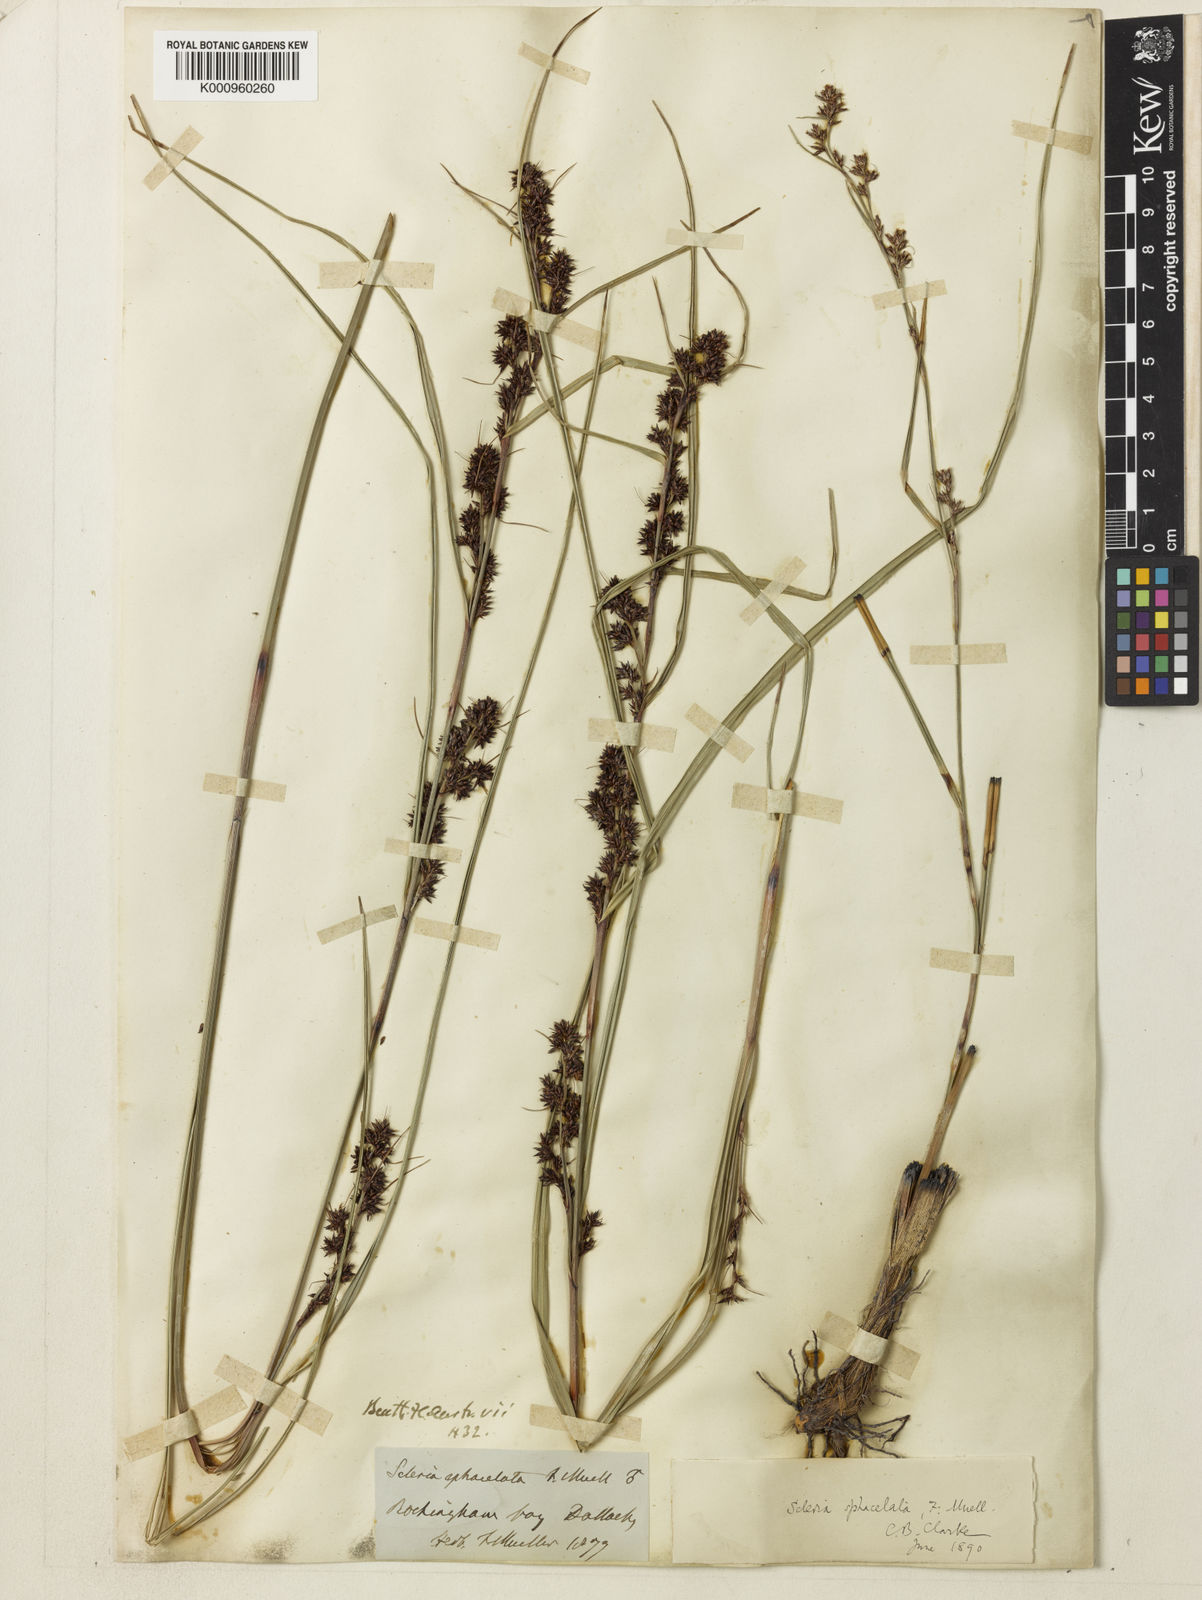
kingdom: Plantae
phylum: Tracheophyta
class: Liliopsida
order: Poales
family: Cyperaceae
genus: Scleria
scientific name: Scleria sphacelata
